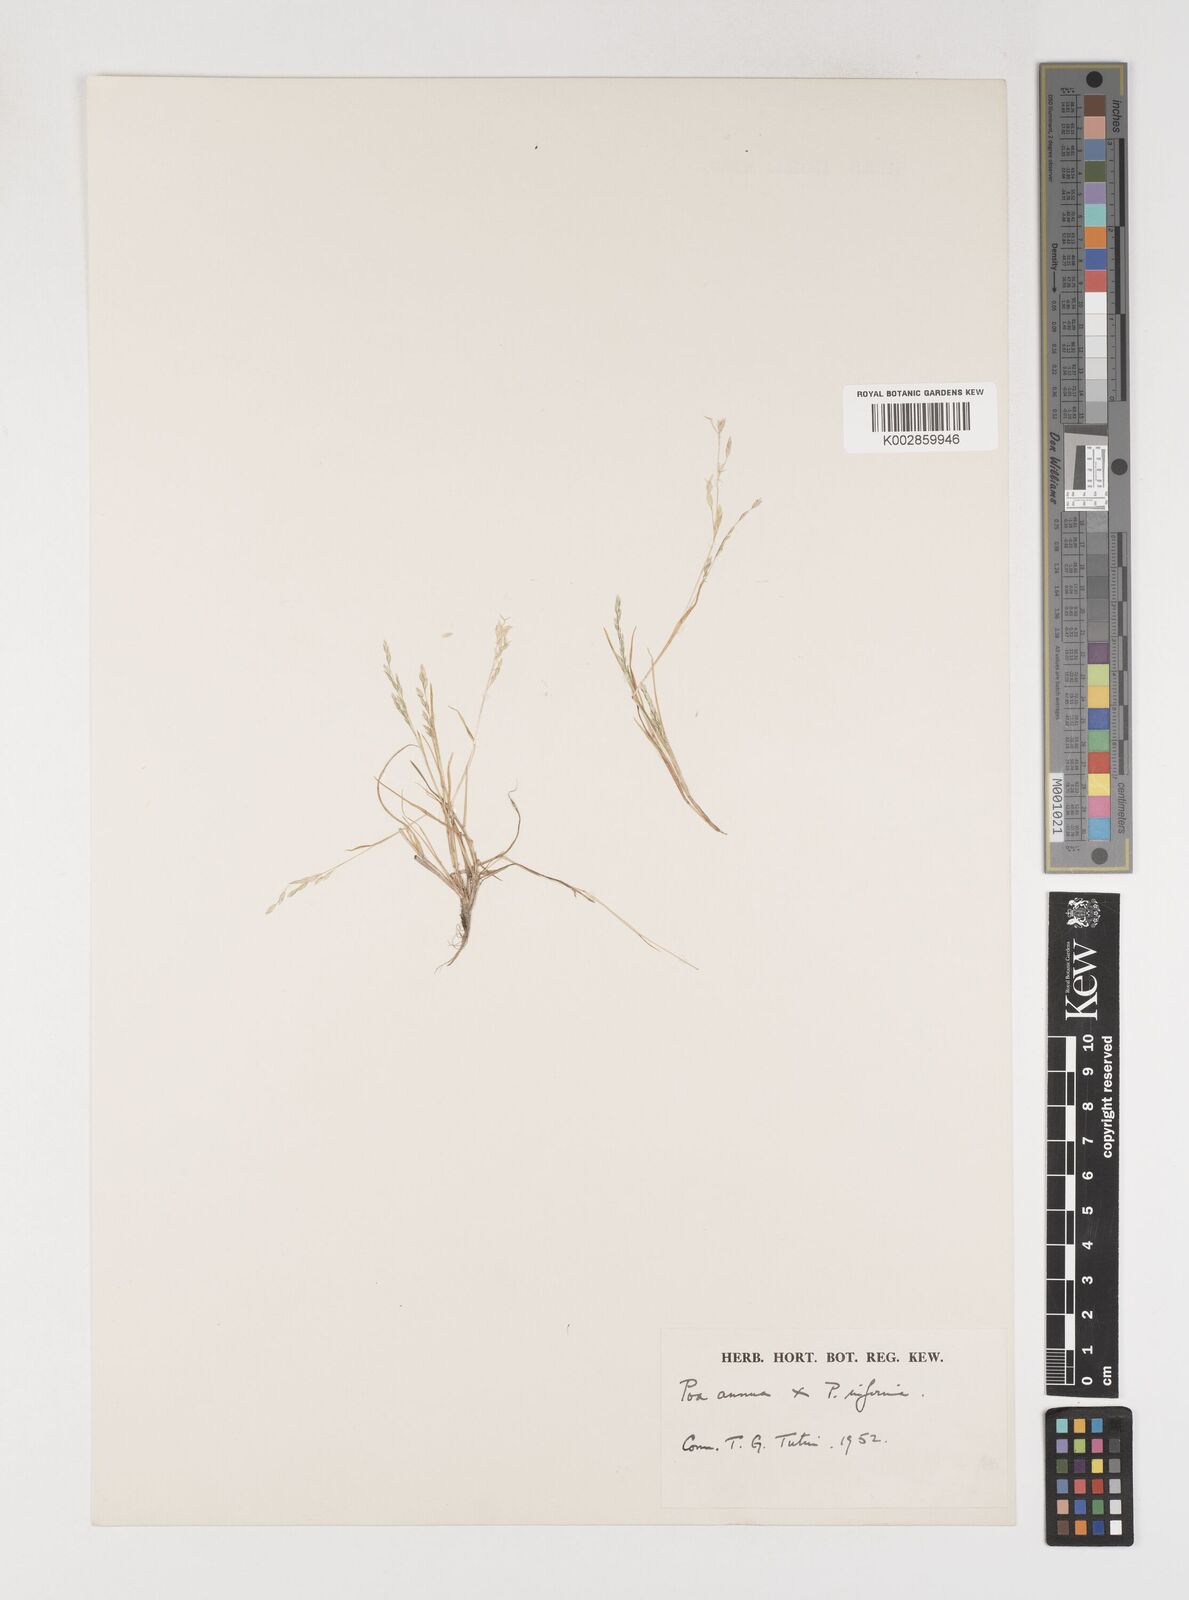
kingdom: Plantae
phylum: Tracheophyta
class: Liliopsida
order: Poales
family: Poaceae
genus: Poa
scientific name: Poa annua
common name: Annual bluegrass
